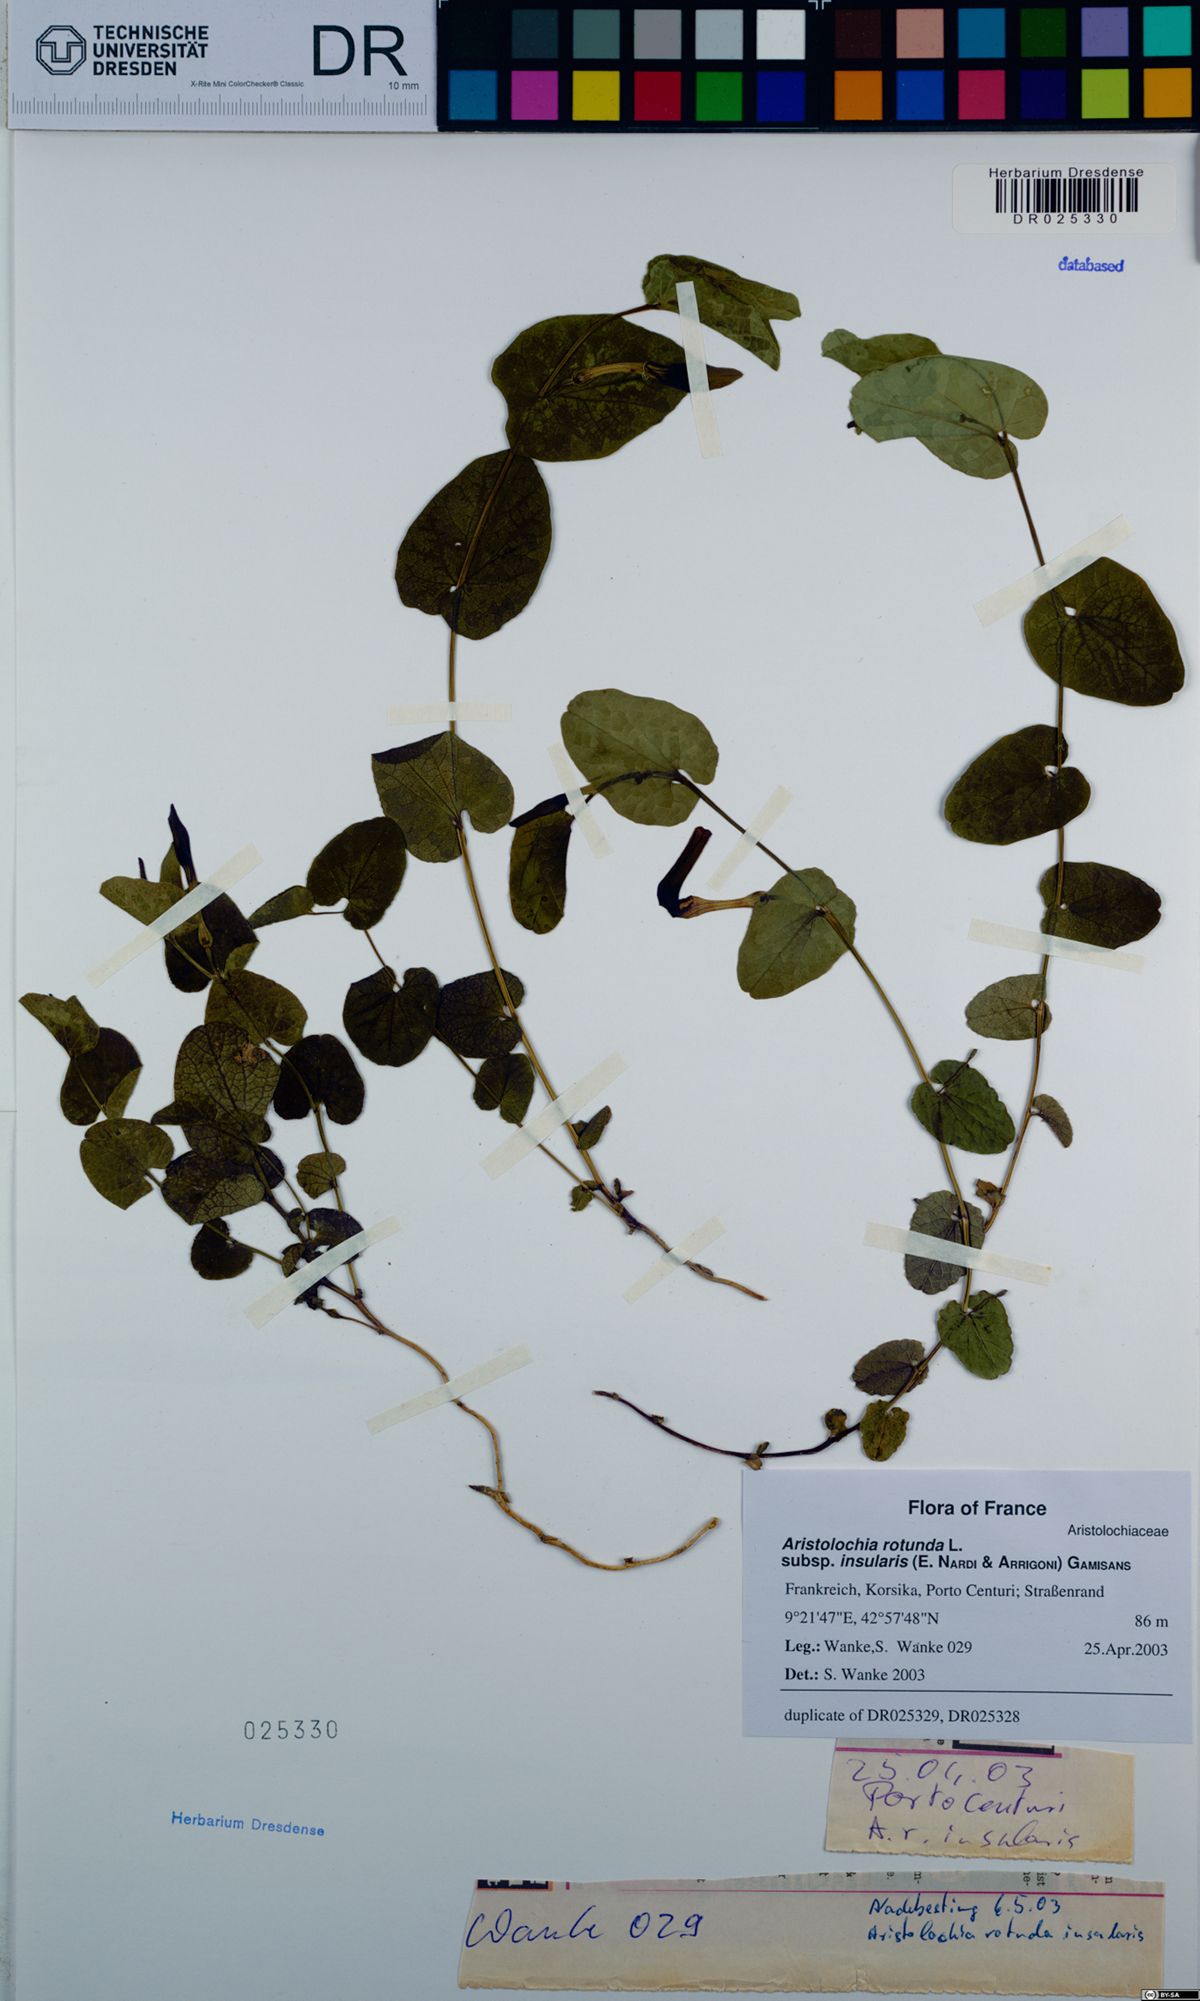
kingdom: Plantae
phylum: Tracheophyta
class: Magnoliopsida
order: Piperales
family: Aristolochiaceae
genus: Aristolochia
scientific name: Aristolochia rotunda
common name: Smearwort
